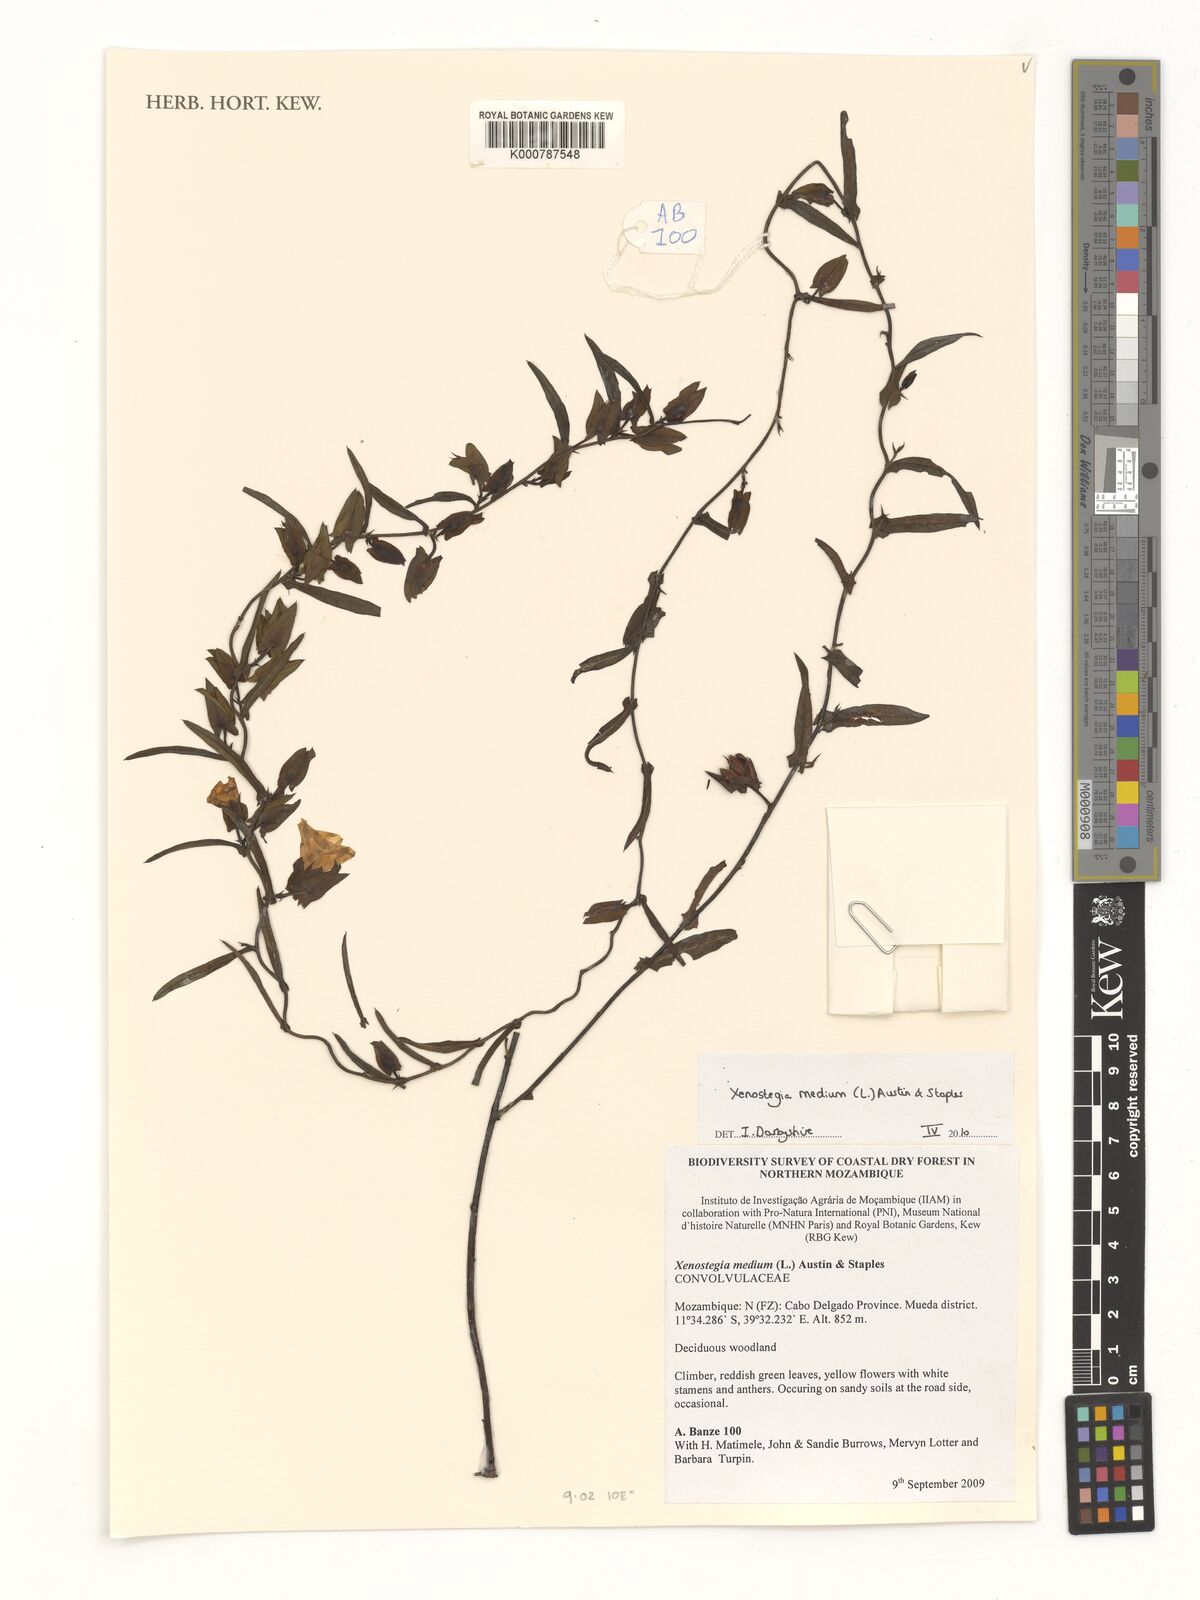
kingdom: Plantae
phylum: Tracheophyta
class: Liliopsida
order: Alismatales
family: Araceae
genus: Pursegloveia
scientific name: Pursegloveia burttii
